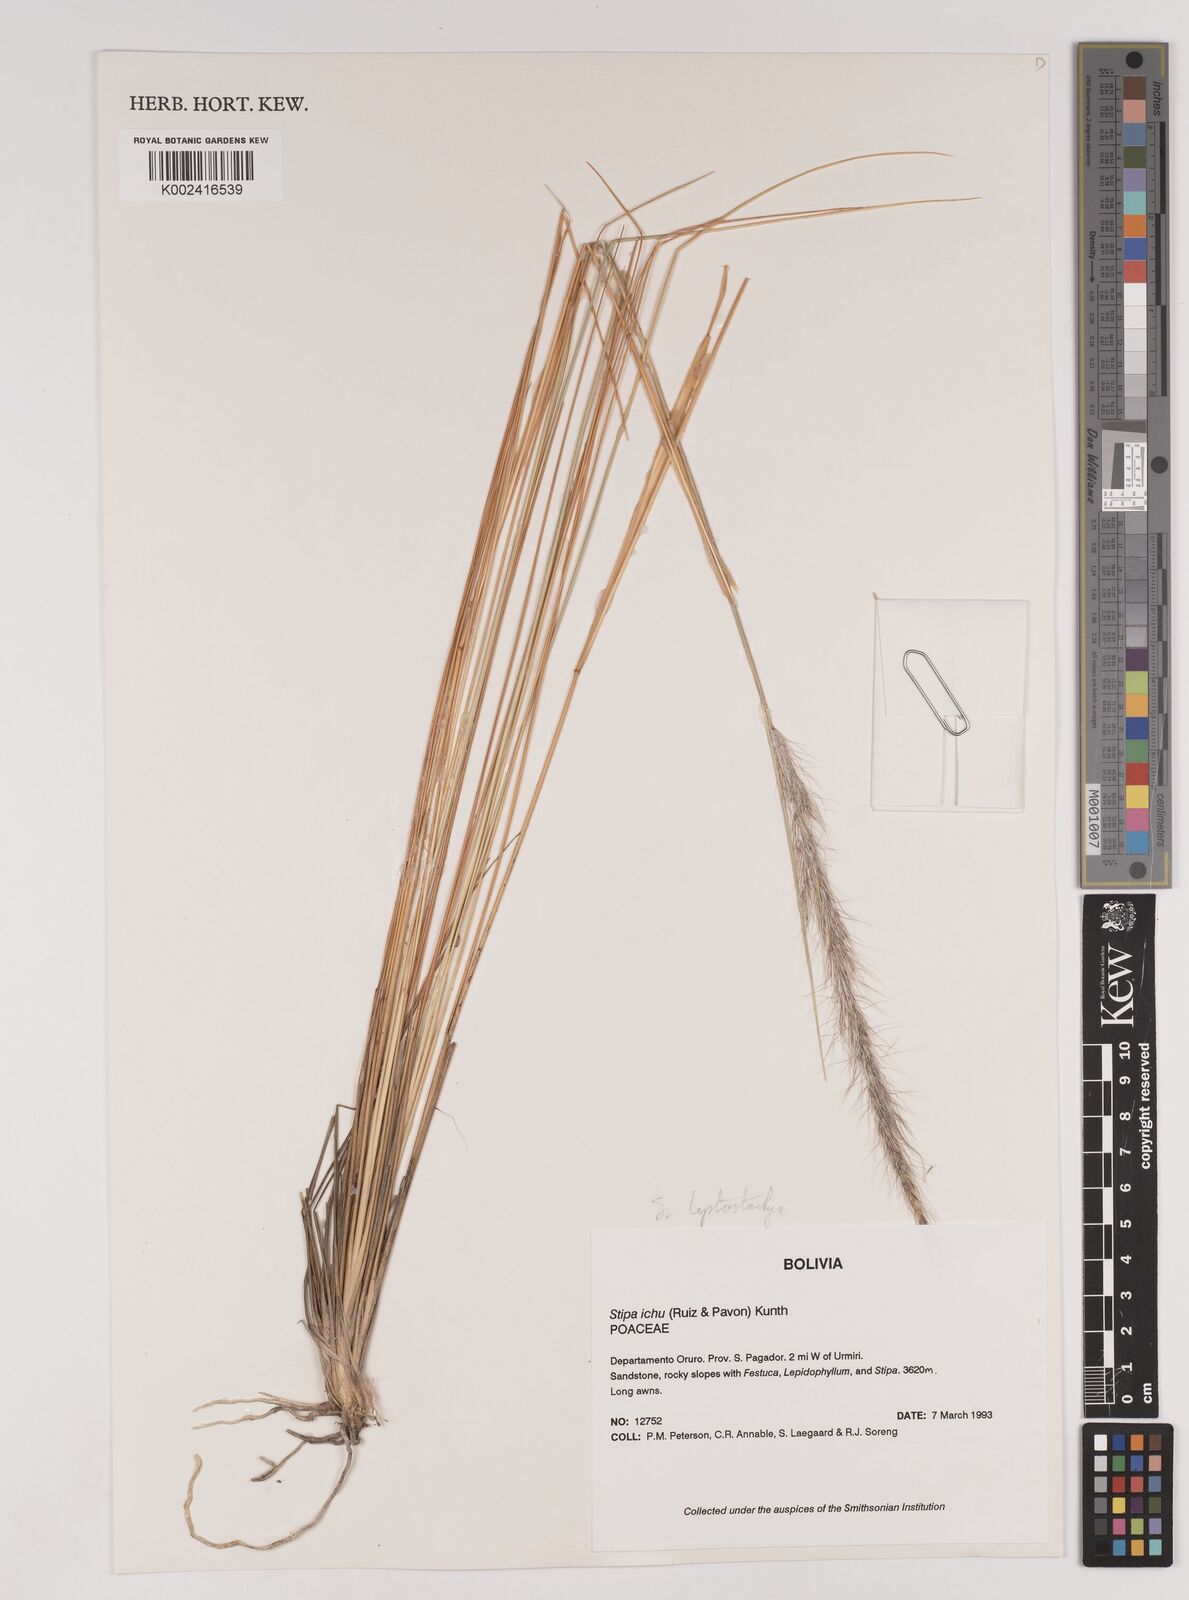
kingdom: Plantae
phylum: Tracheophyta
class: Liliopsida
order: Poales
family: Poaceae
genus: Stipa
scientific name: Stipa
